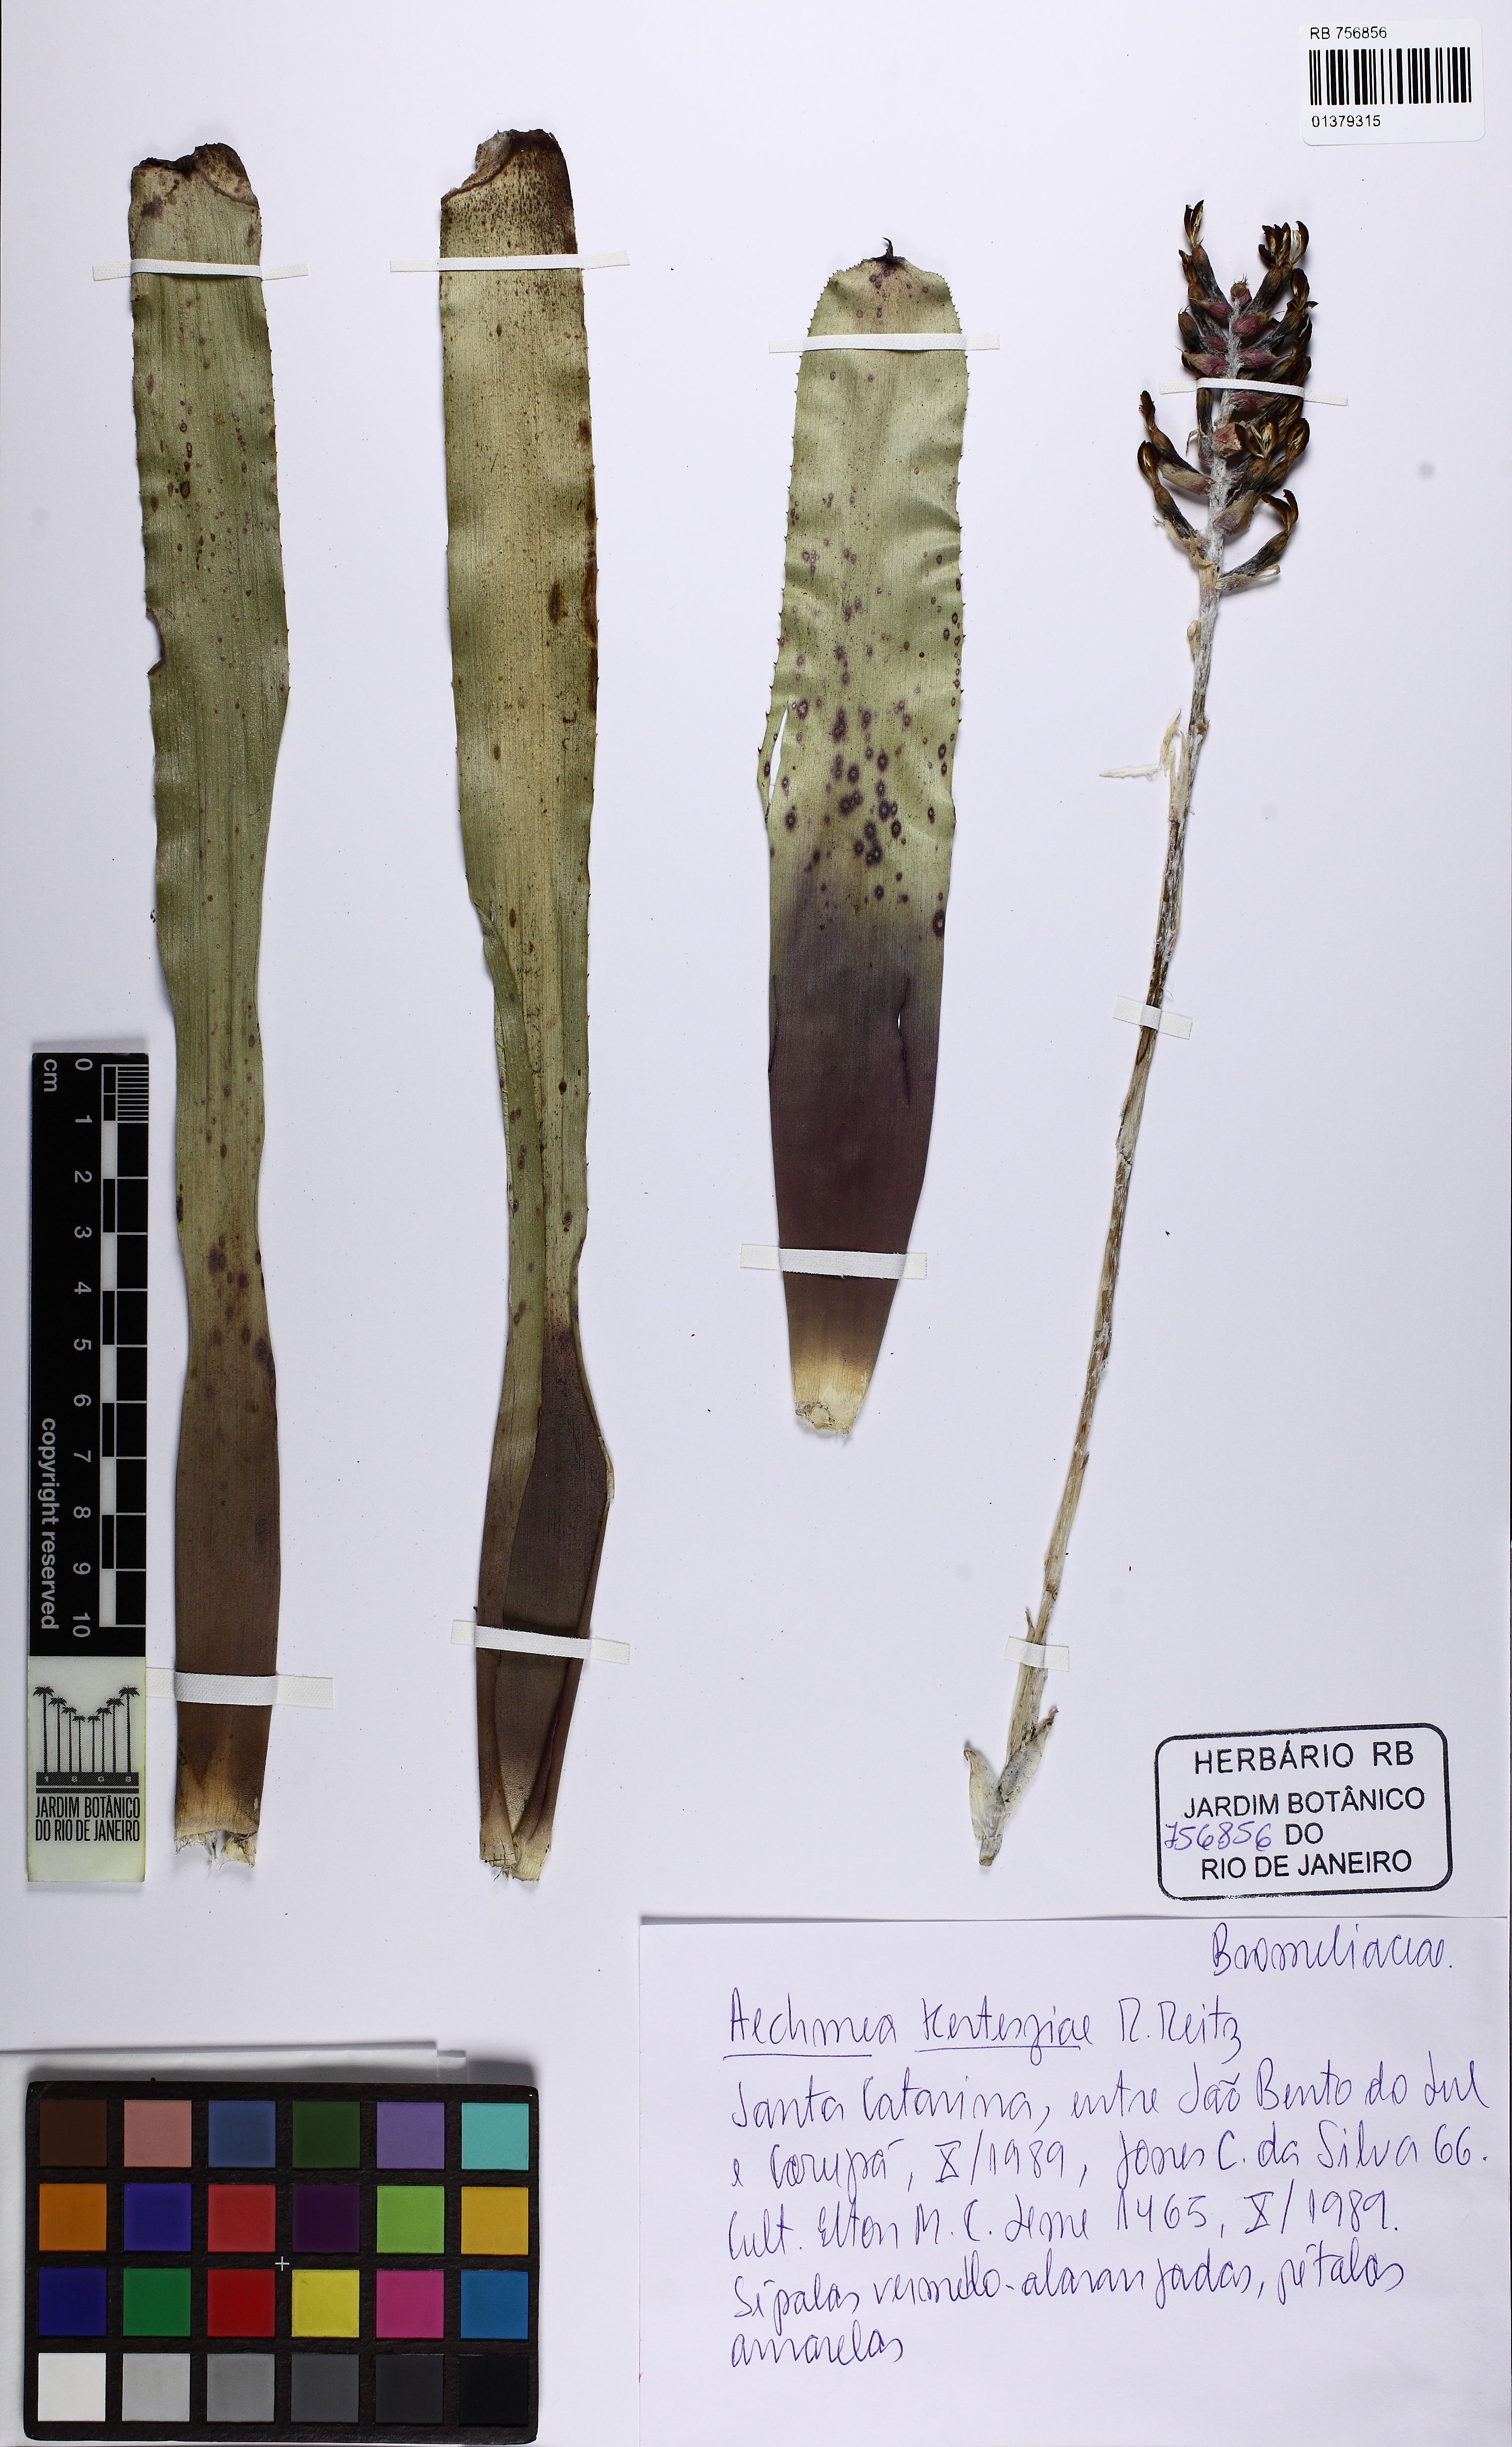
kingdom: Plantae
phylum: Tracheophyta
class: Liliopsida
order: Poales
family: Bromeliaceae
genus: Aechmea
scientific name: Aechmea winkleri
